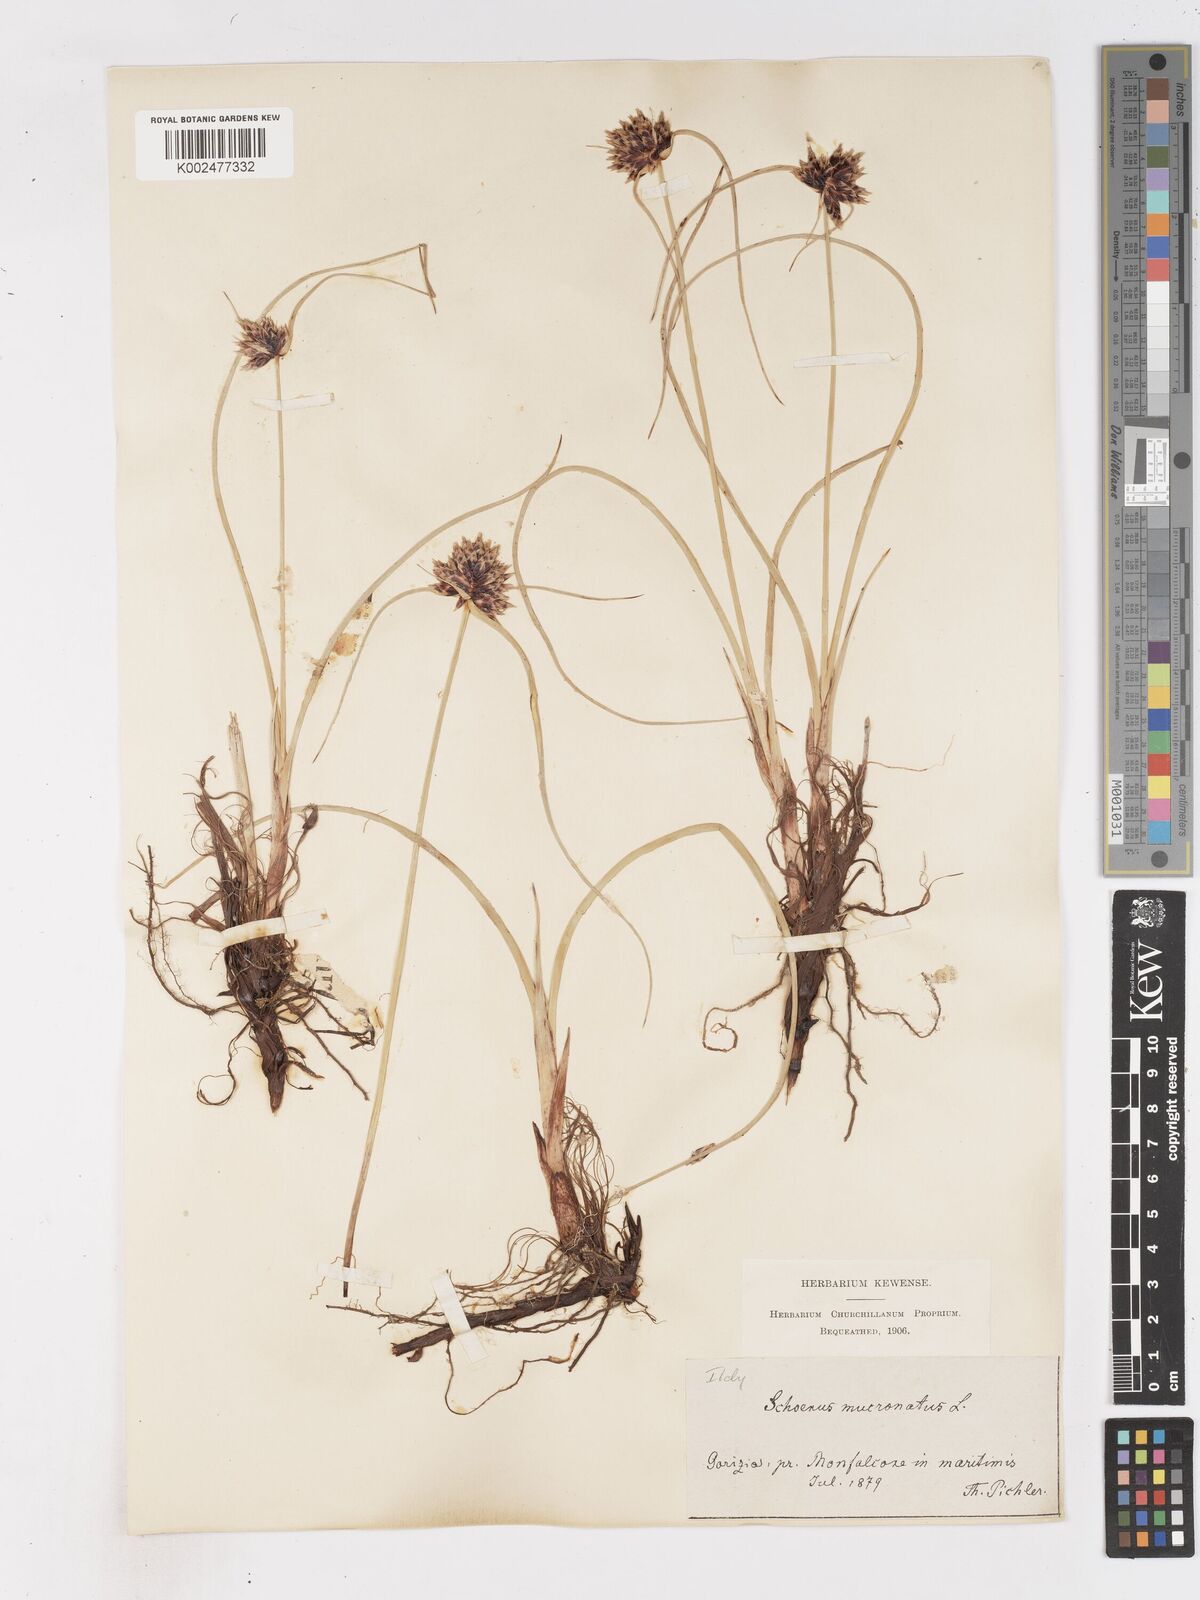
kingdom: Plantae
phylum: Tracheophyta
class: Liliopsida
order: Poales
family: Cyperaceae
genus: Cyperus
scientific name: Cyperus capitatus
